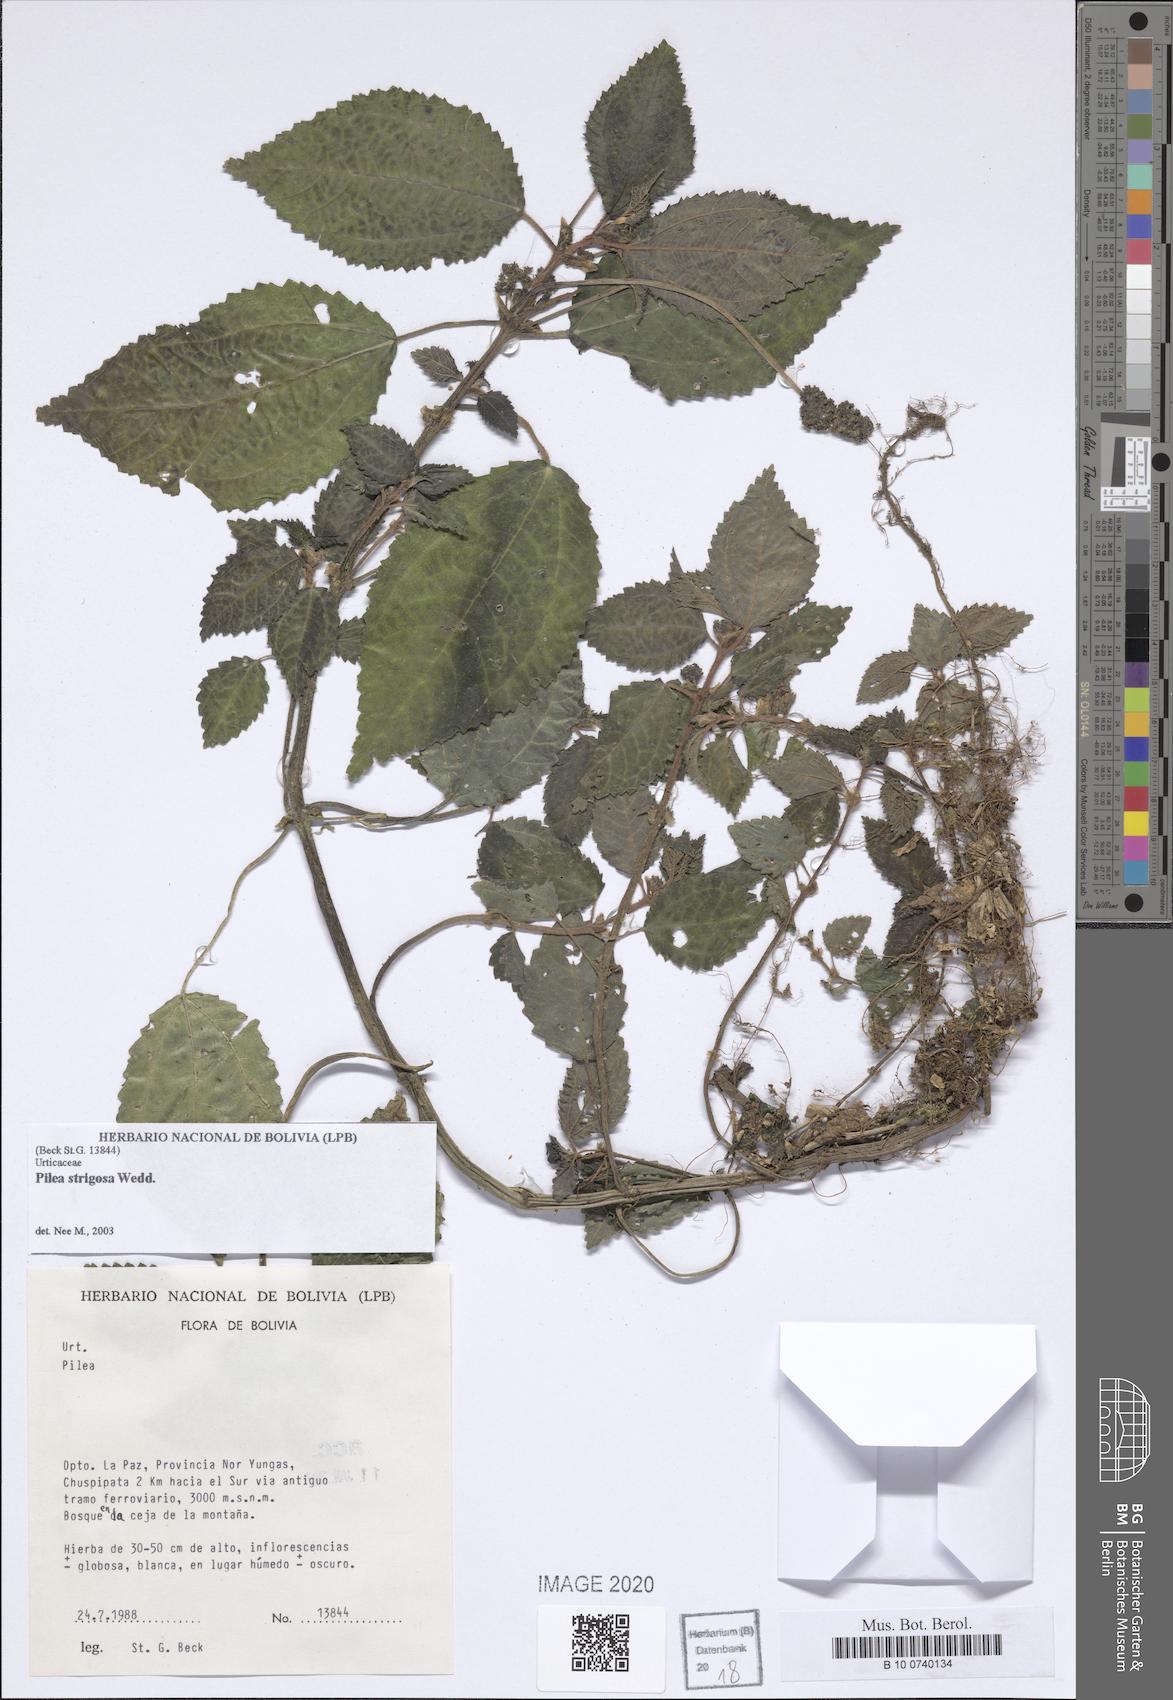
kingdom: Plantae
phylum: Tracheophyta
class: Magnoliopsida
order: Rosales
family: Urticaceae
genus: Pilea
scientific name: Pilea strigosa
